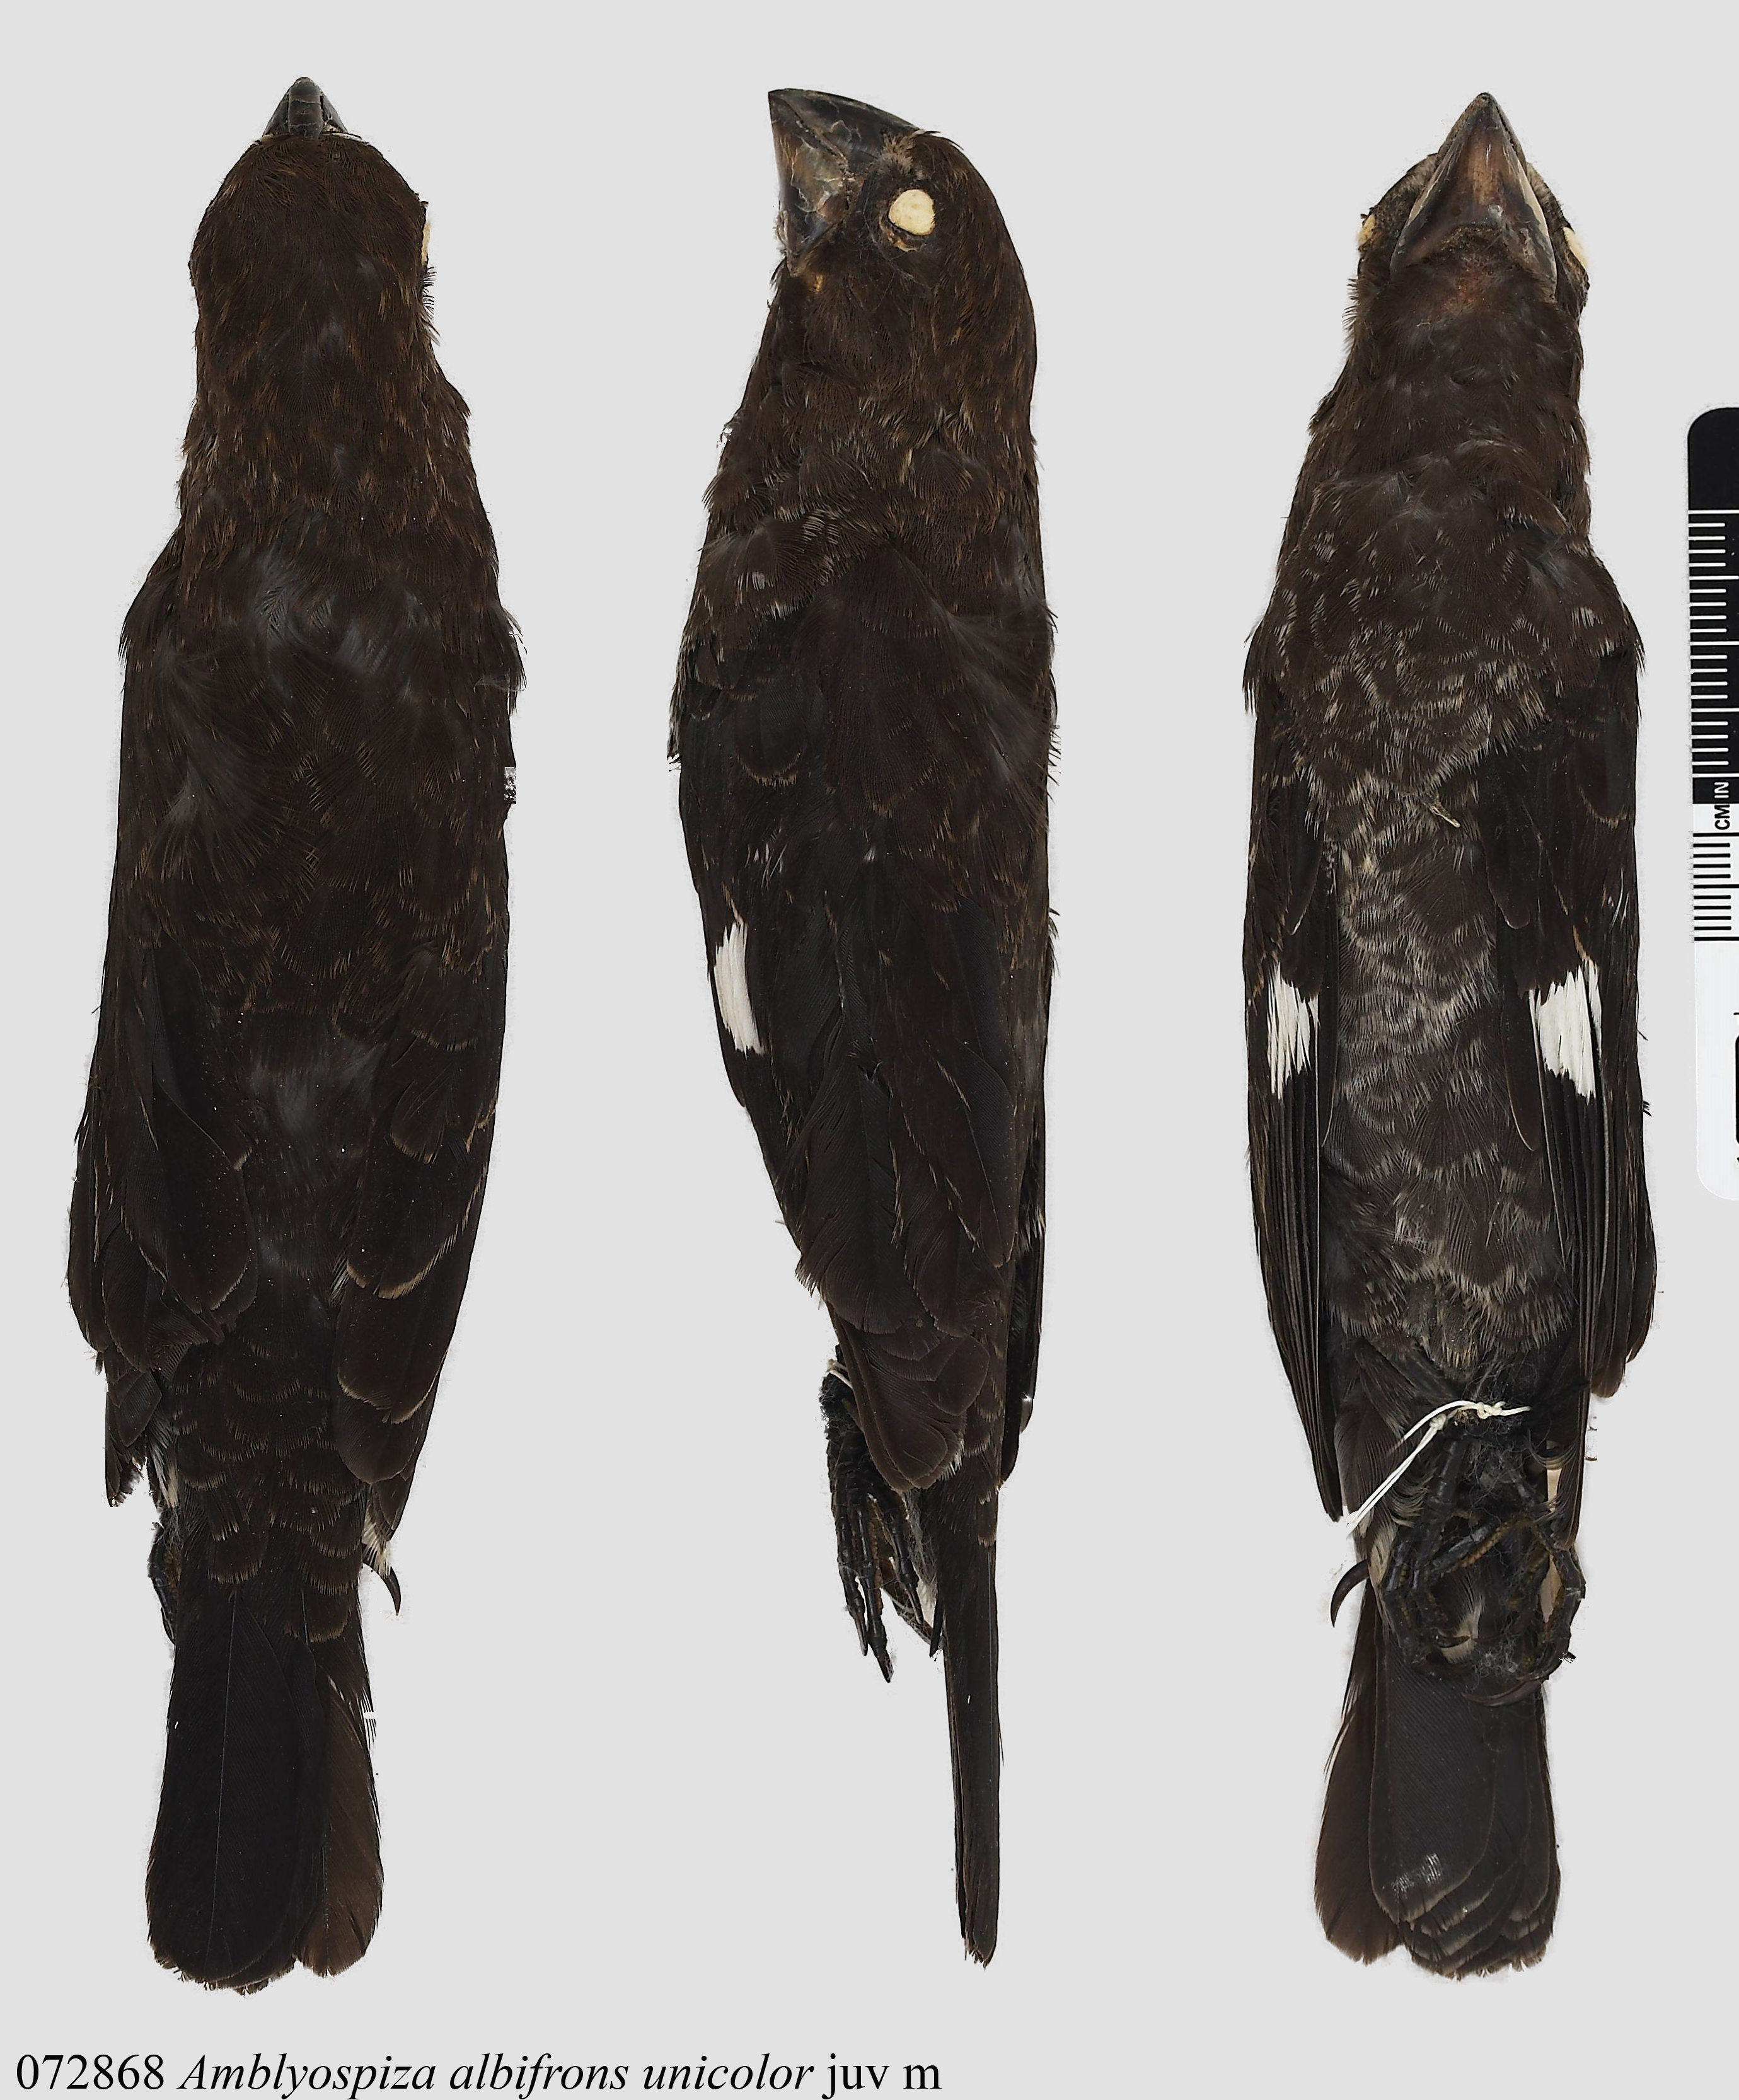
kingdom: Animalia
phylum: Chordata
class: Aves
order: Passeriformes
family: Ploceidae
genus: Amblyospiza
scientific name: Amblyospiza albifrons
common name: Thick-billed weaver
